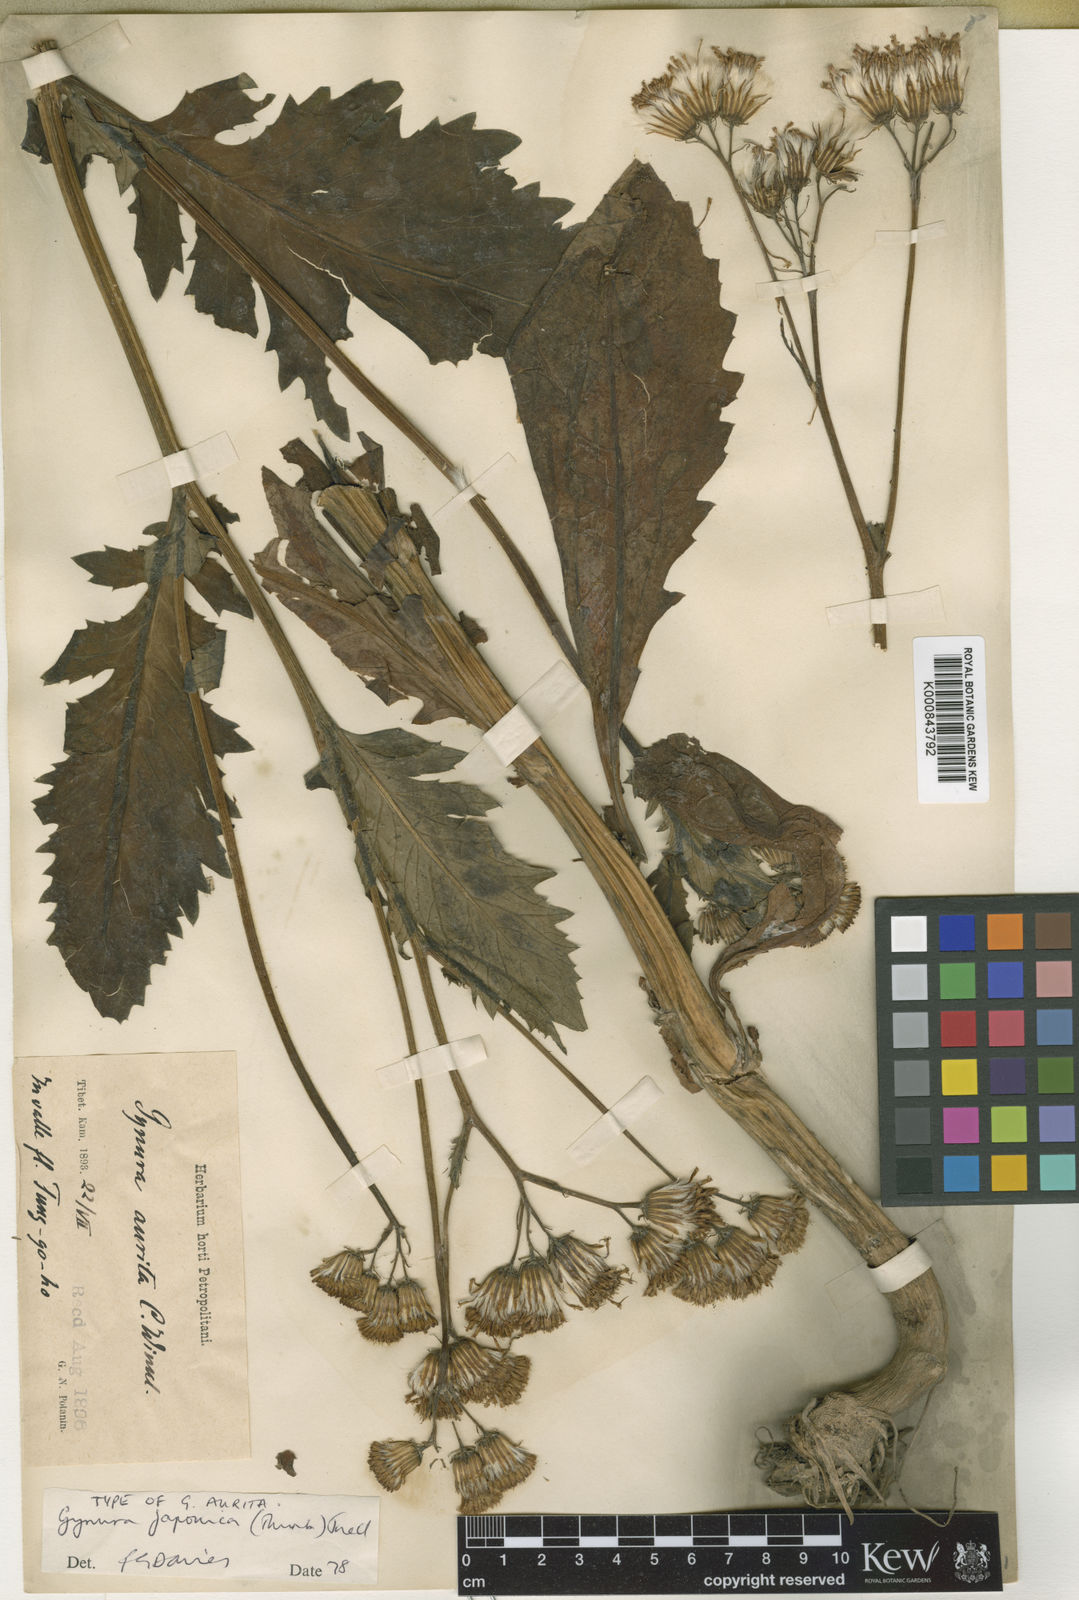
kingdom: Plantae
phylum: Tracheophyta
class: Magnoliopsida
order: Asterales
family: Asteraceae
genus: Gynura
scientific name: Gynura japonica
